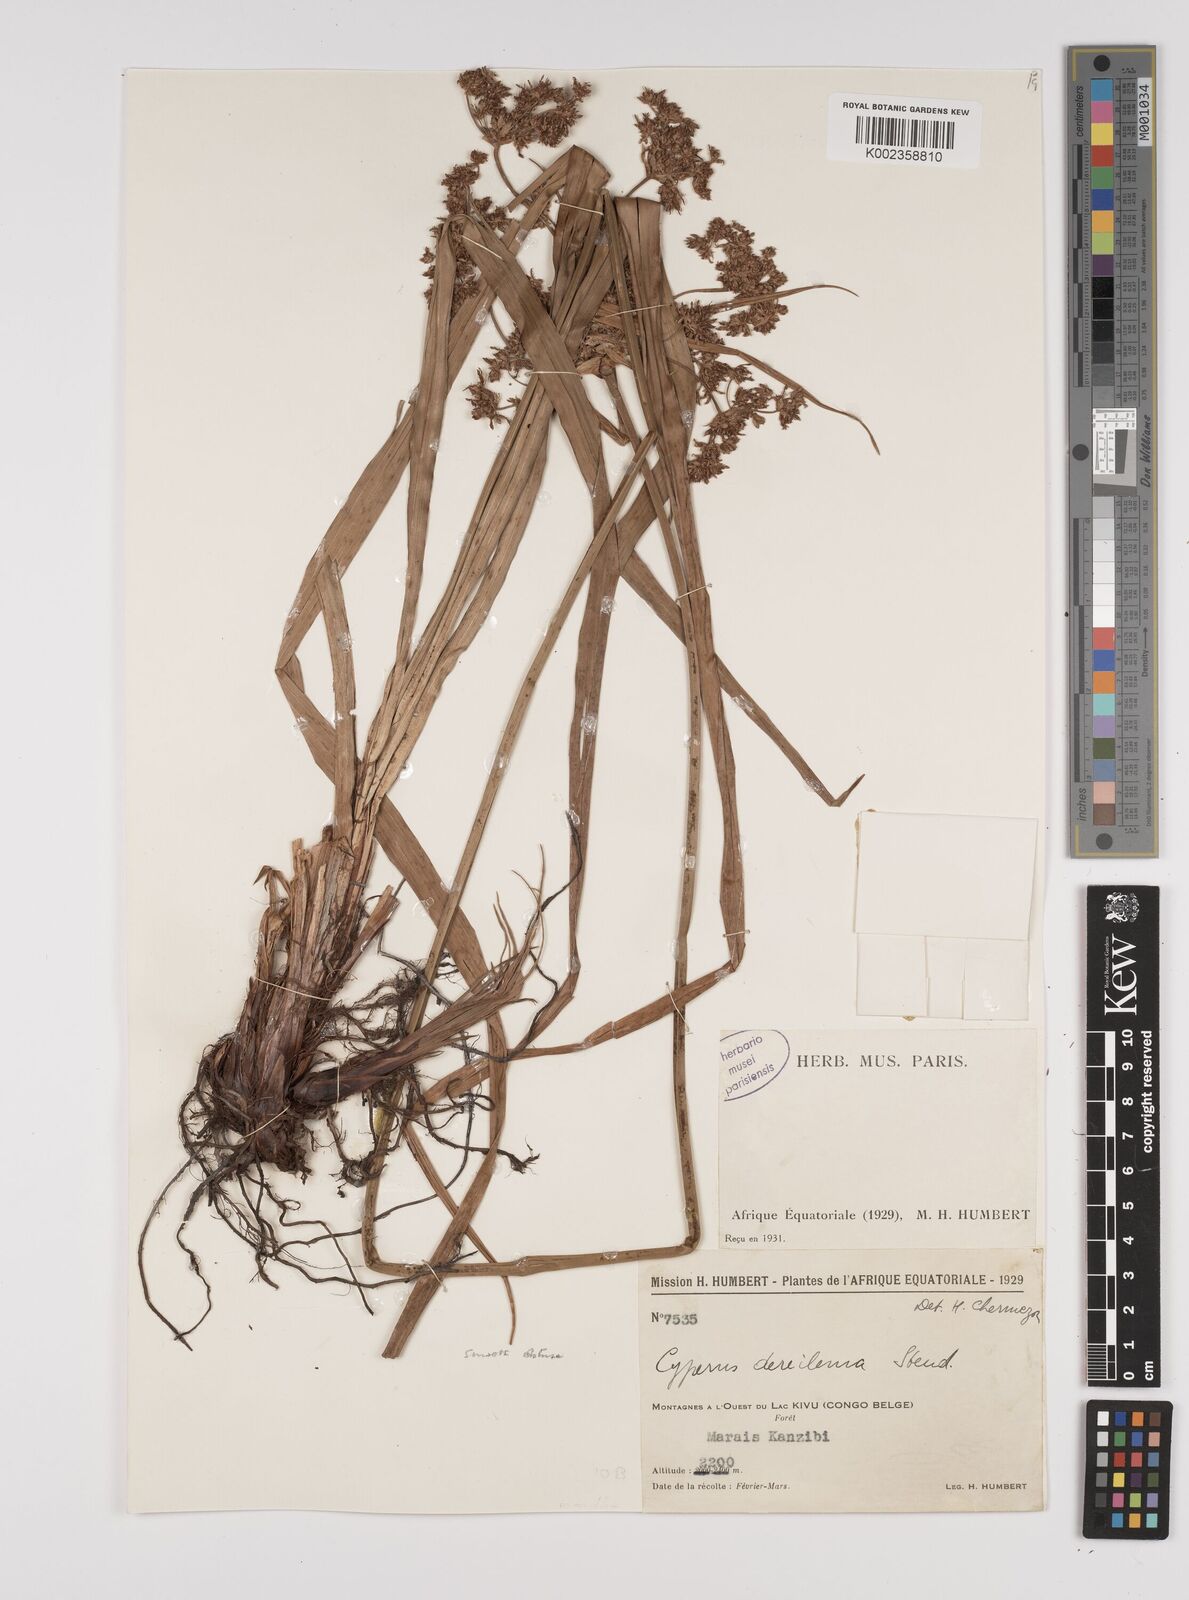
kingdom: Plantae
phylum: Tracheophyta
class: Liliopsida
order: Poales
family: Cyperaceae
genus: Cyperus
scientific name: Cyperus derreilema
